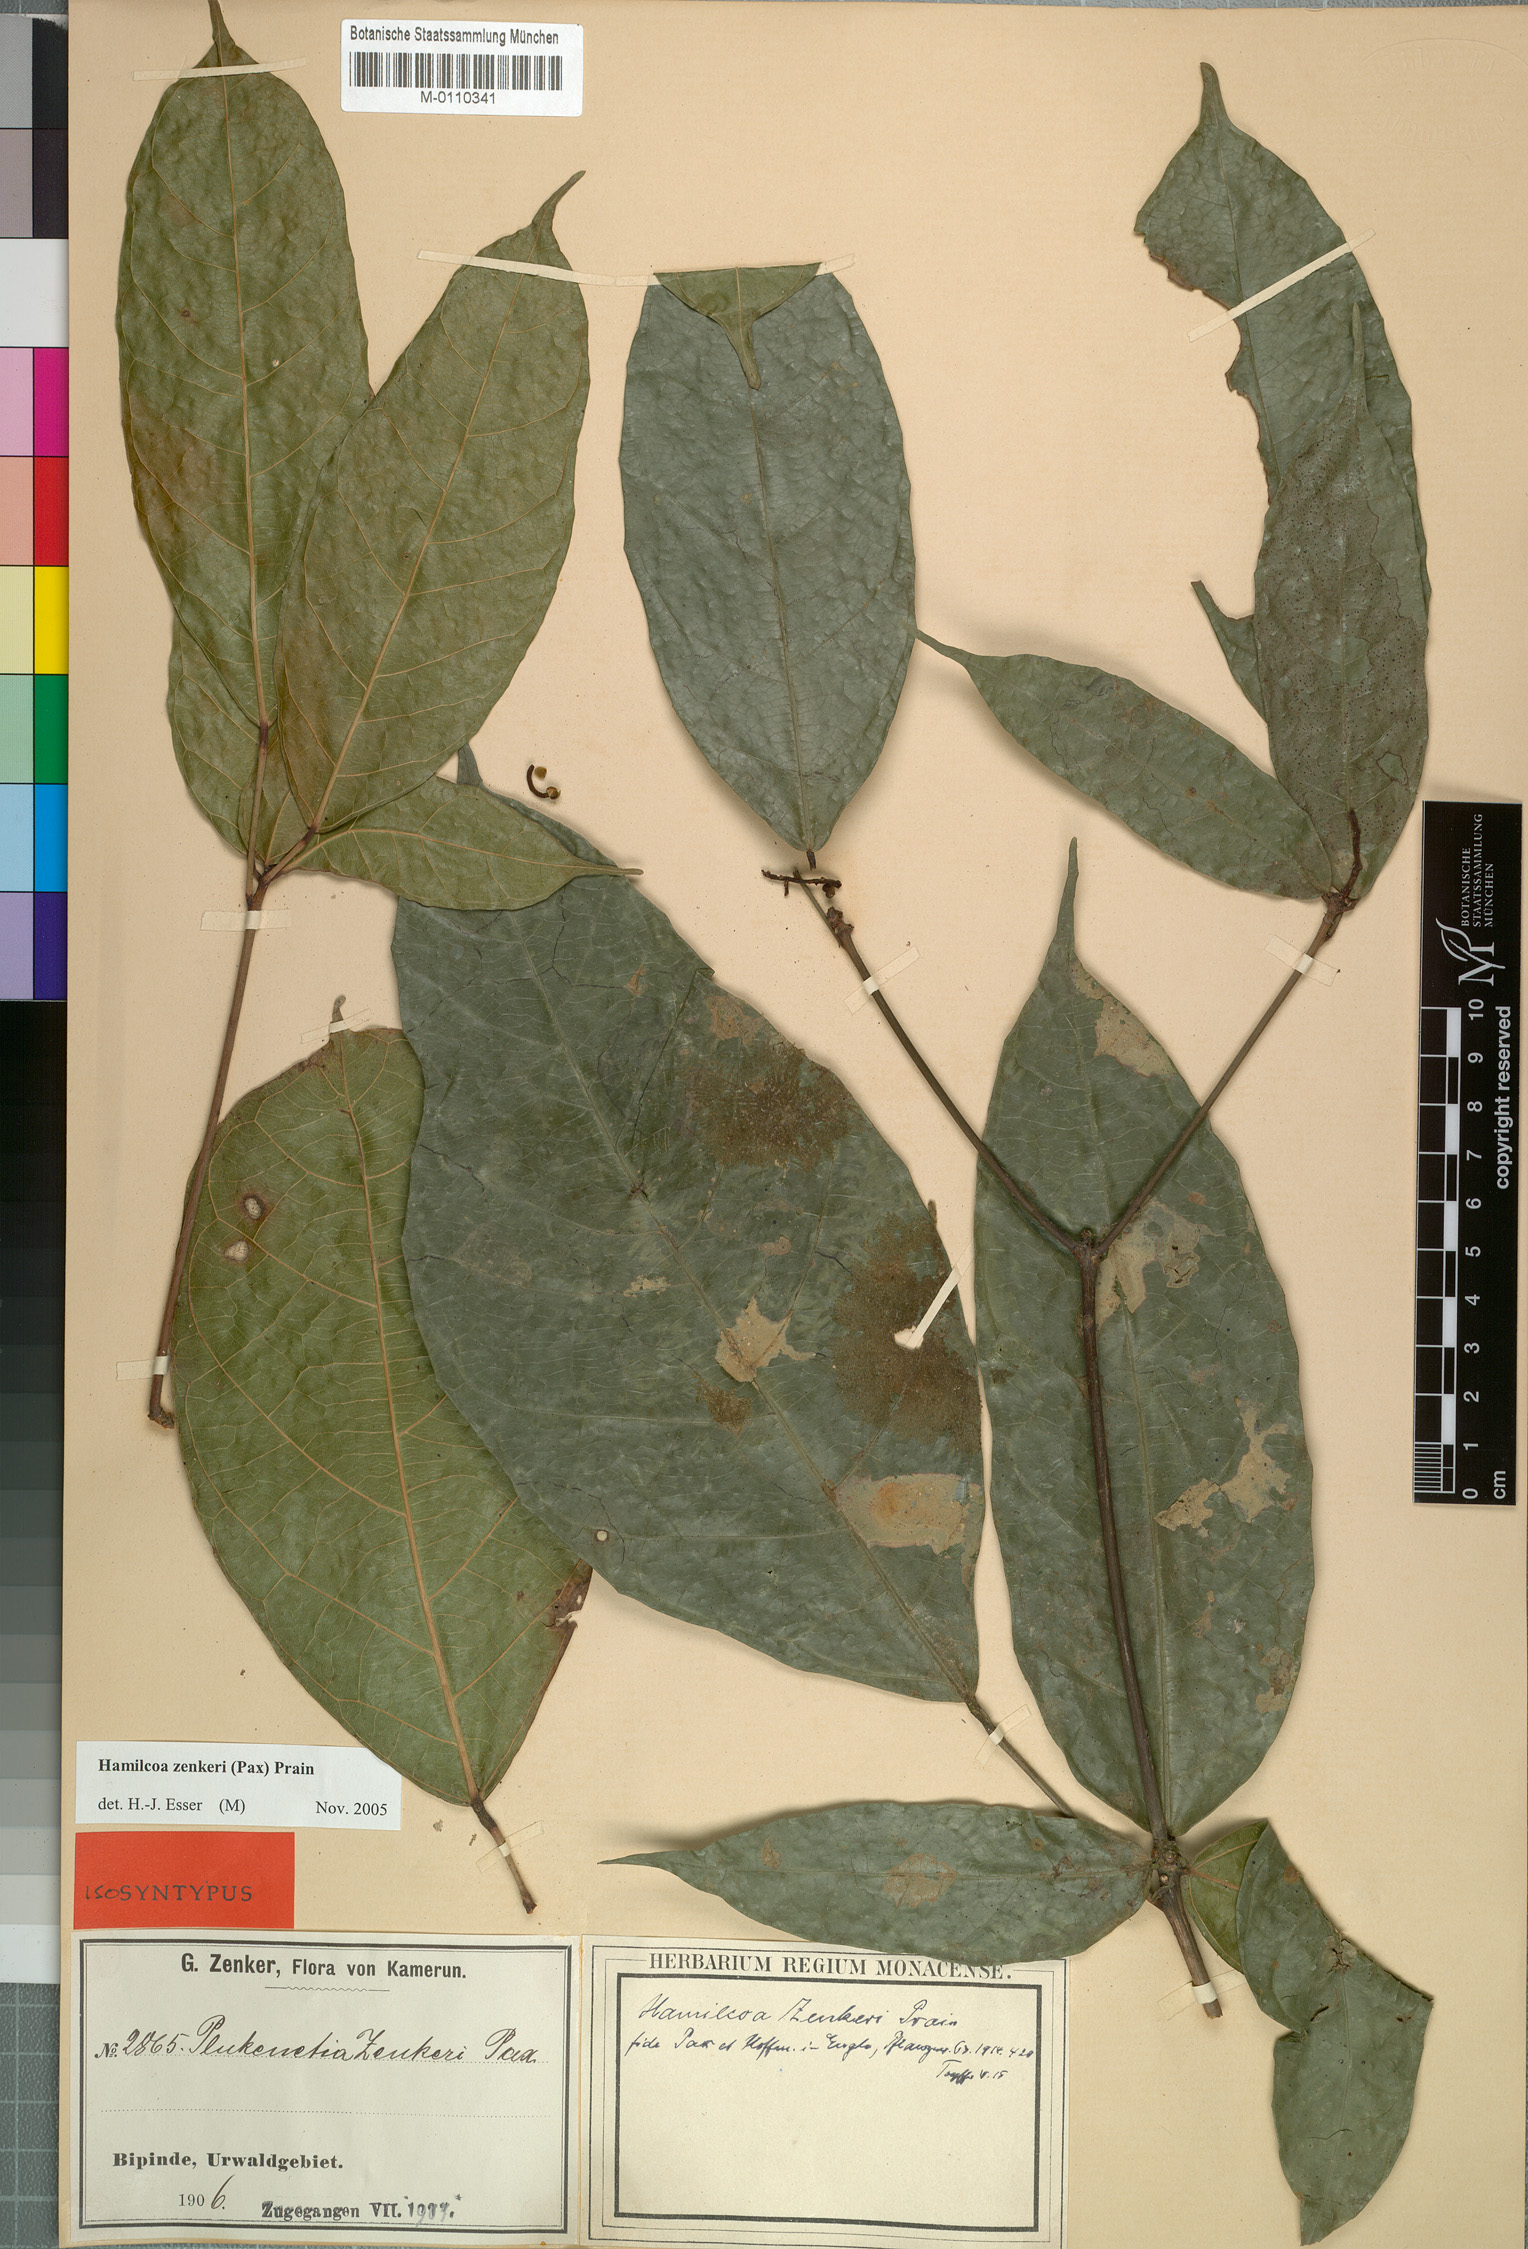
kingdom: Plantae
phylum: Tracheophyta
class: Magnoliopsida
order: Malpighiales
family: Euphorbiaceae
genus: Hamilcoa
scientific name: Hamilcoa zenkeri
